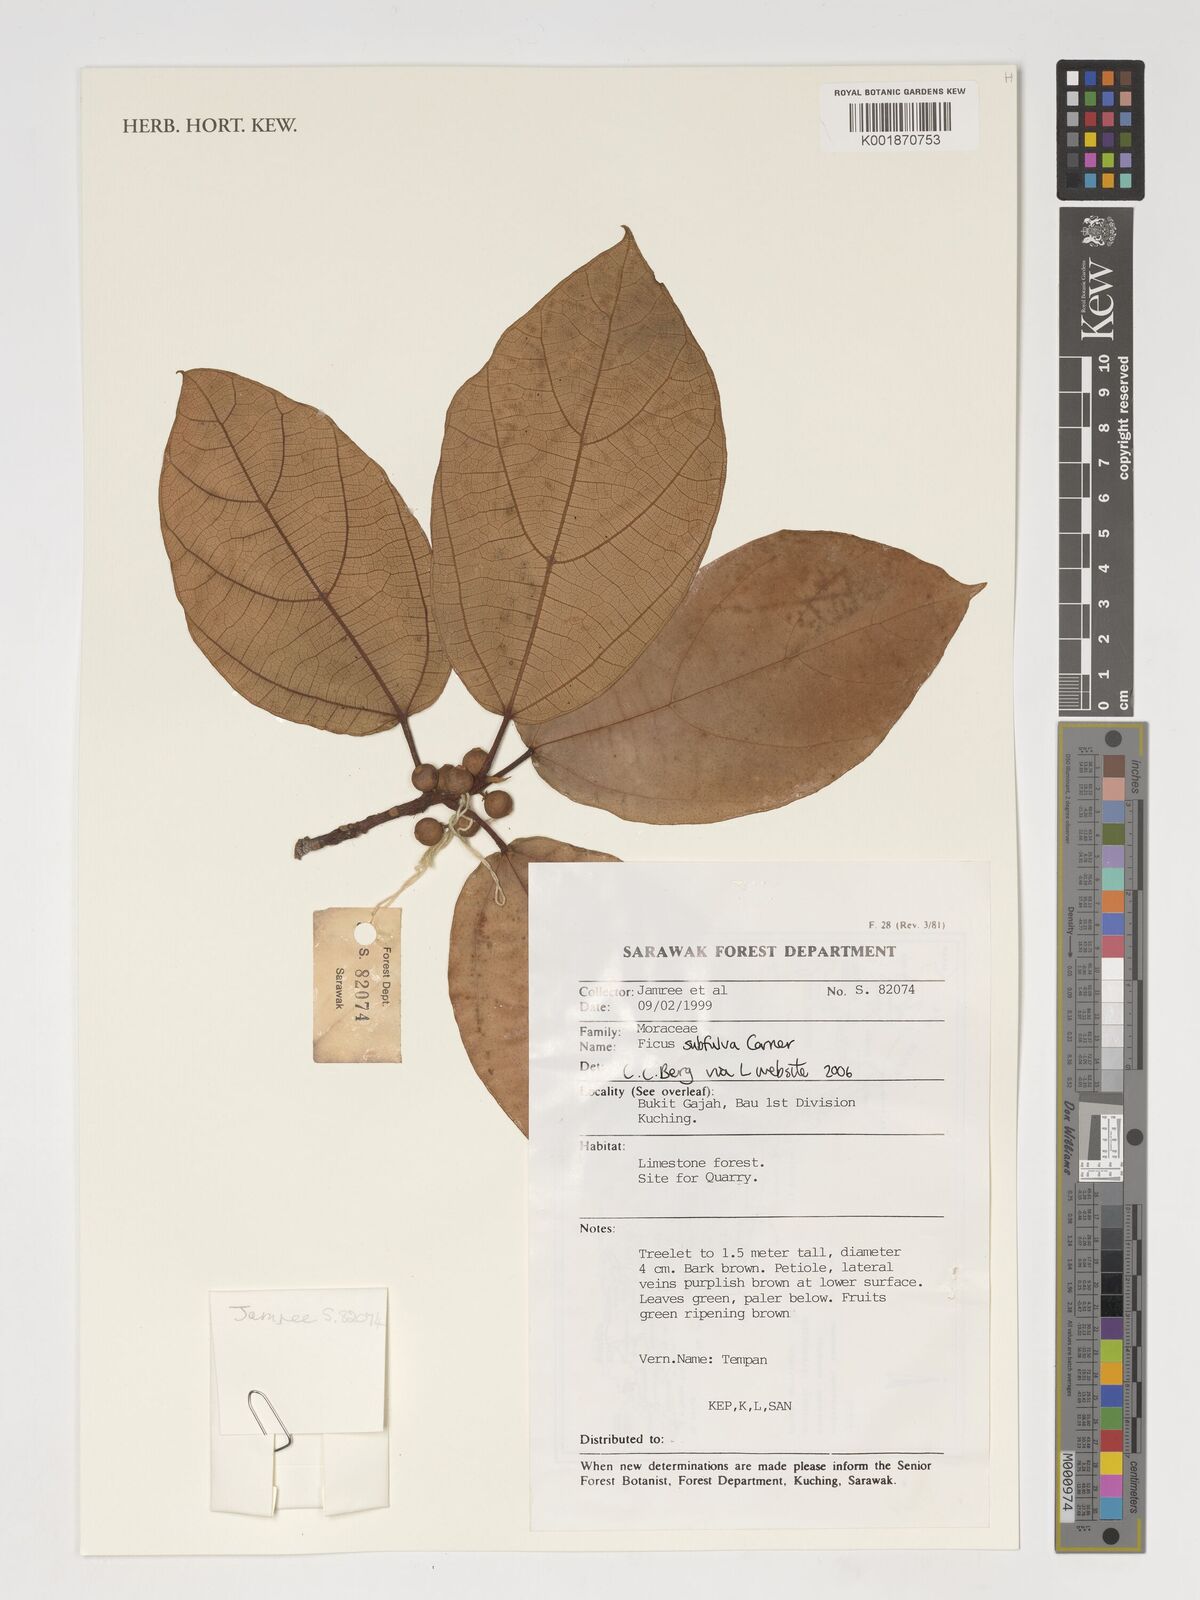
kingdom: Plantae
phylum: Tracheophyta
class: Magnoliopsida
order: Rosales
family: Moraceae
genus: Ficus
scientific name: Ficus subfulva
